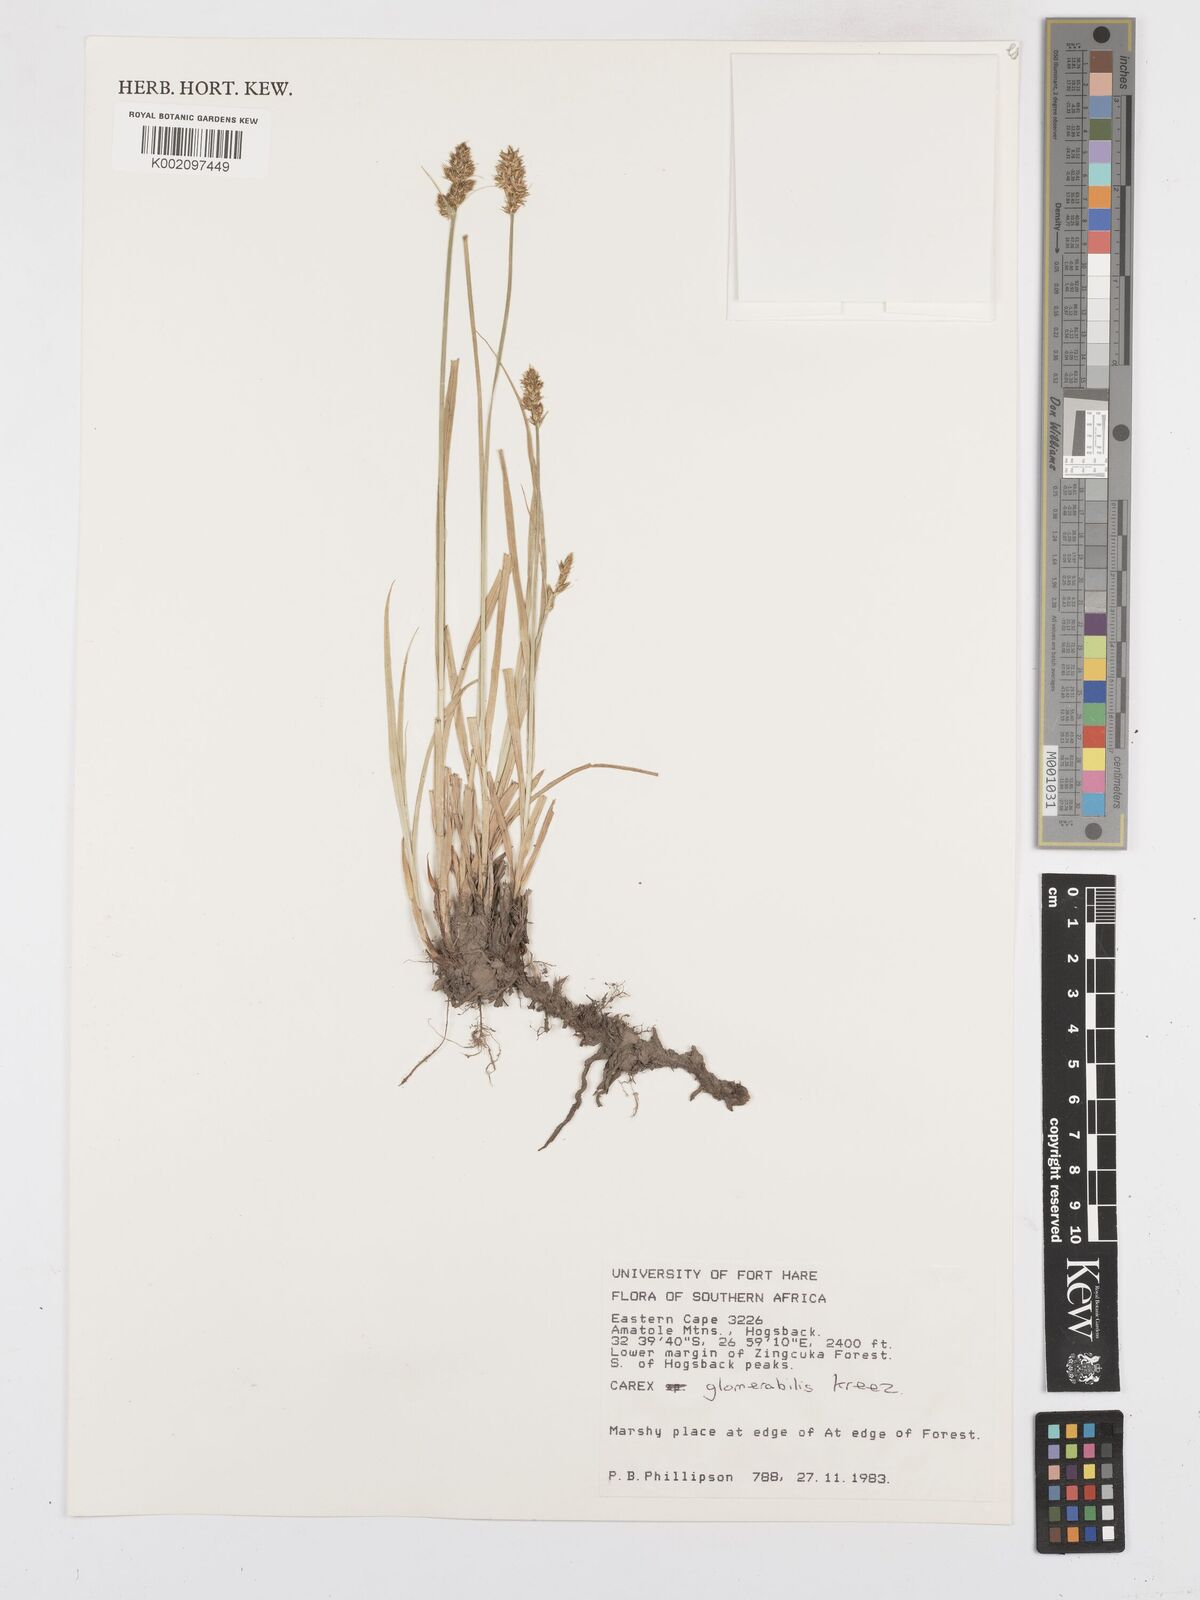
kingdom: Plantae
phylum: Tracheophyta
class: Liliopsida
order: Poales
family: Cyperaceae
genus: Carex
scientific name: Carex glomerata
